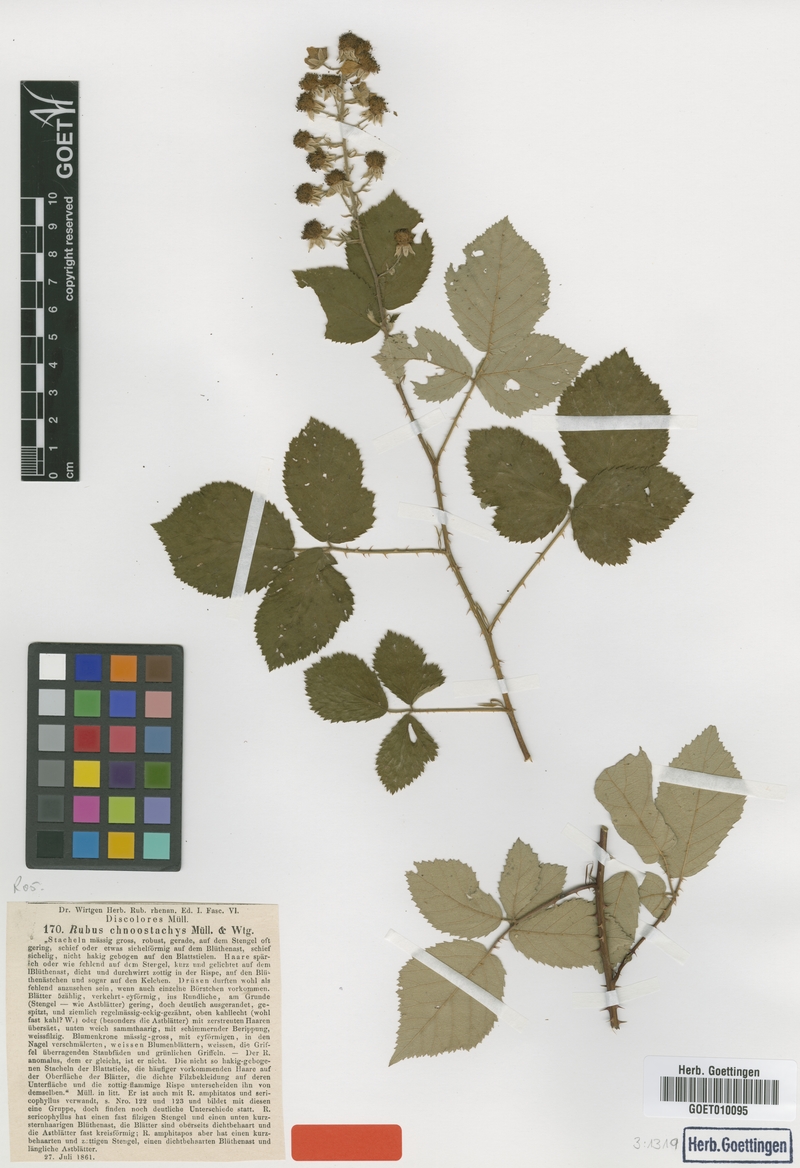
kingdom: Plantae
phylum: Tracheophyta
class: Magnoliopsida
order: Rosales
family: Rosaceae
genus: Rubus
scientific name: Rubus chnoostachys
